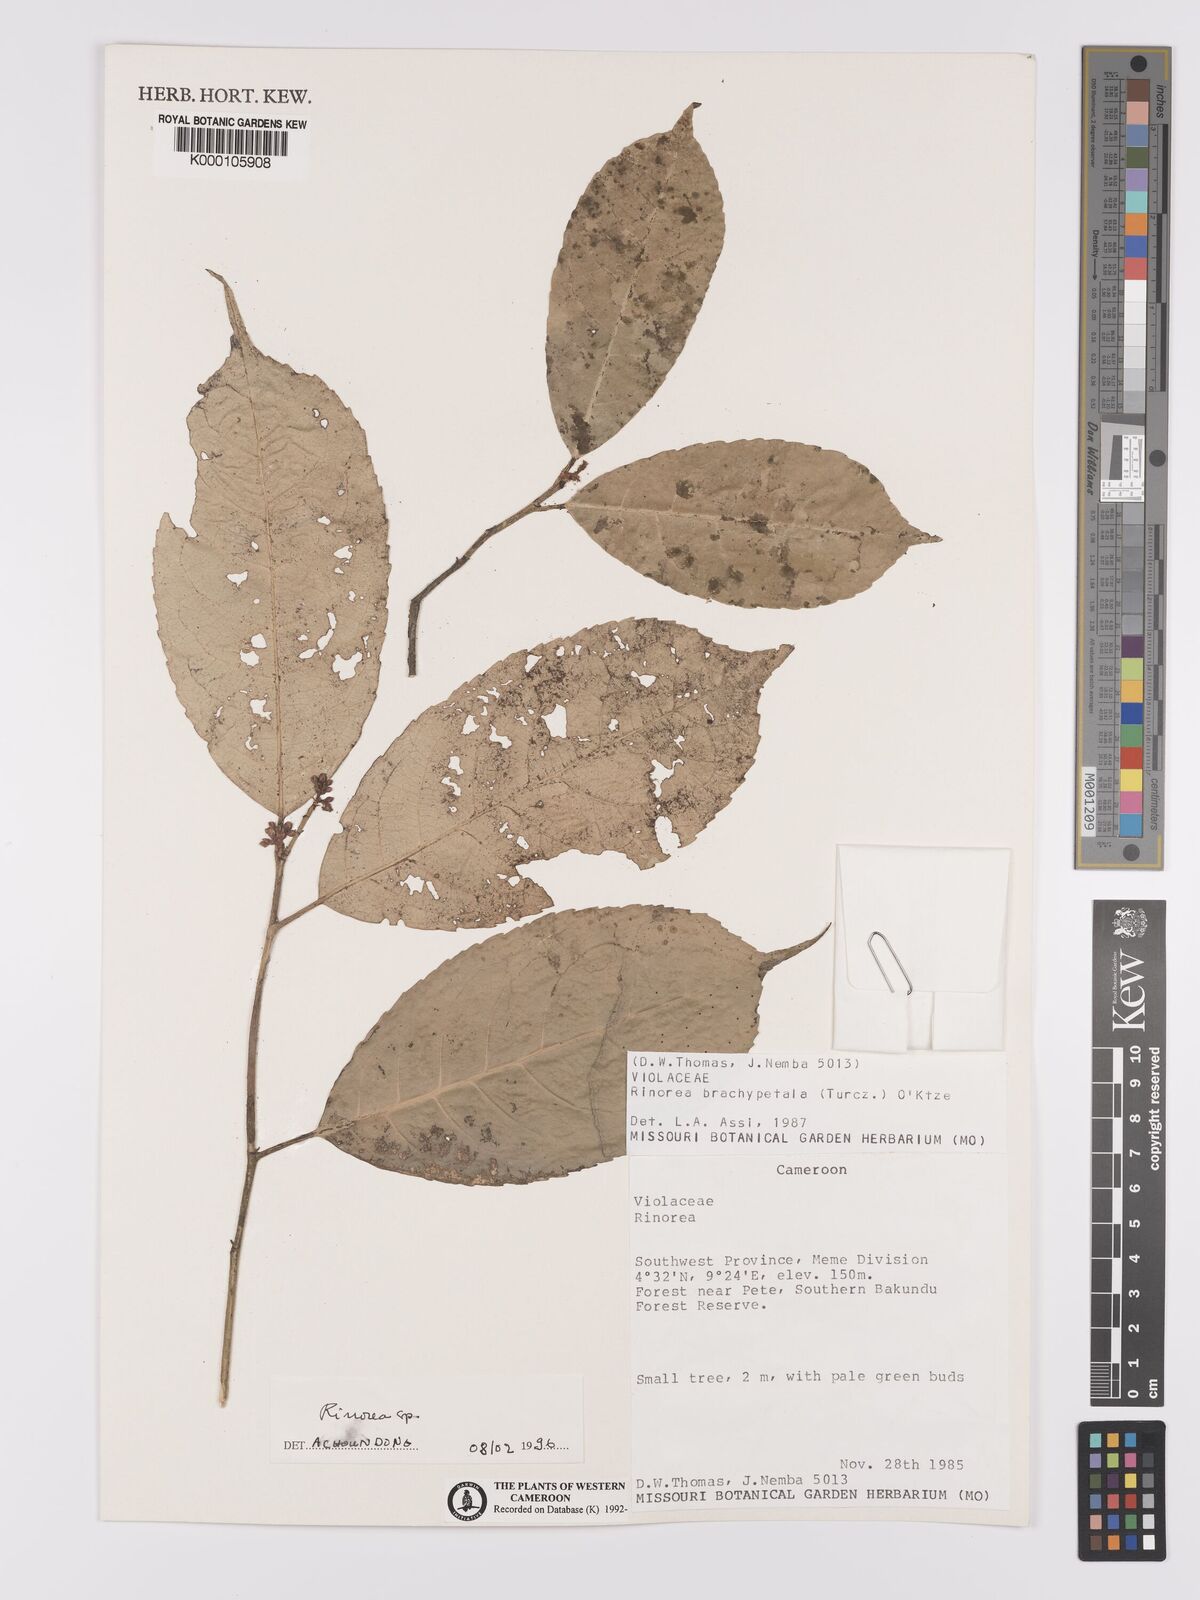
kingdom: Plantae
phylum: Tracheophyta
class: Magnoliopsida
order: Malpighiales
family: Violaceae
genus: Rinorea
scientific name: Rinorea dewitii
